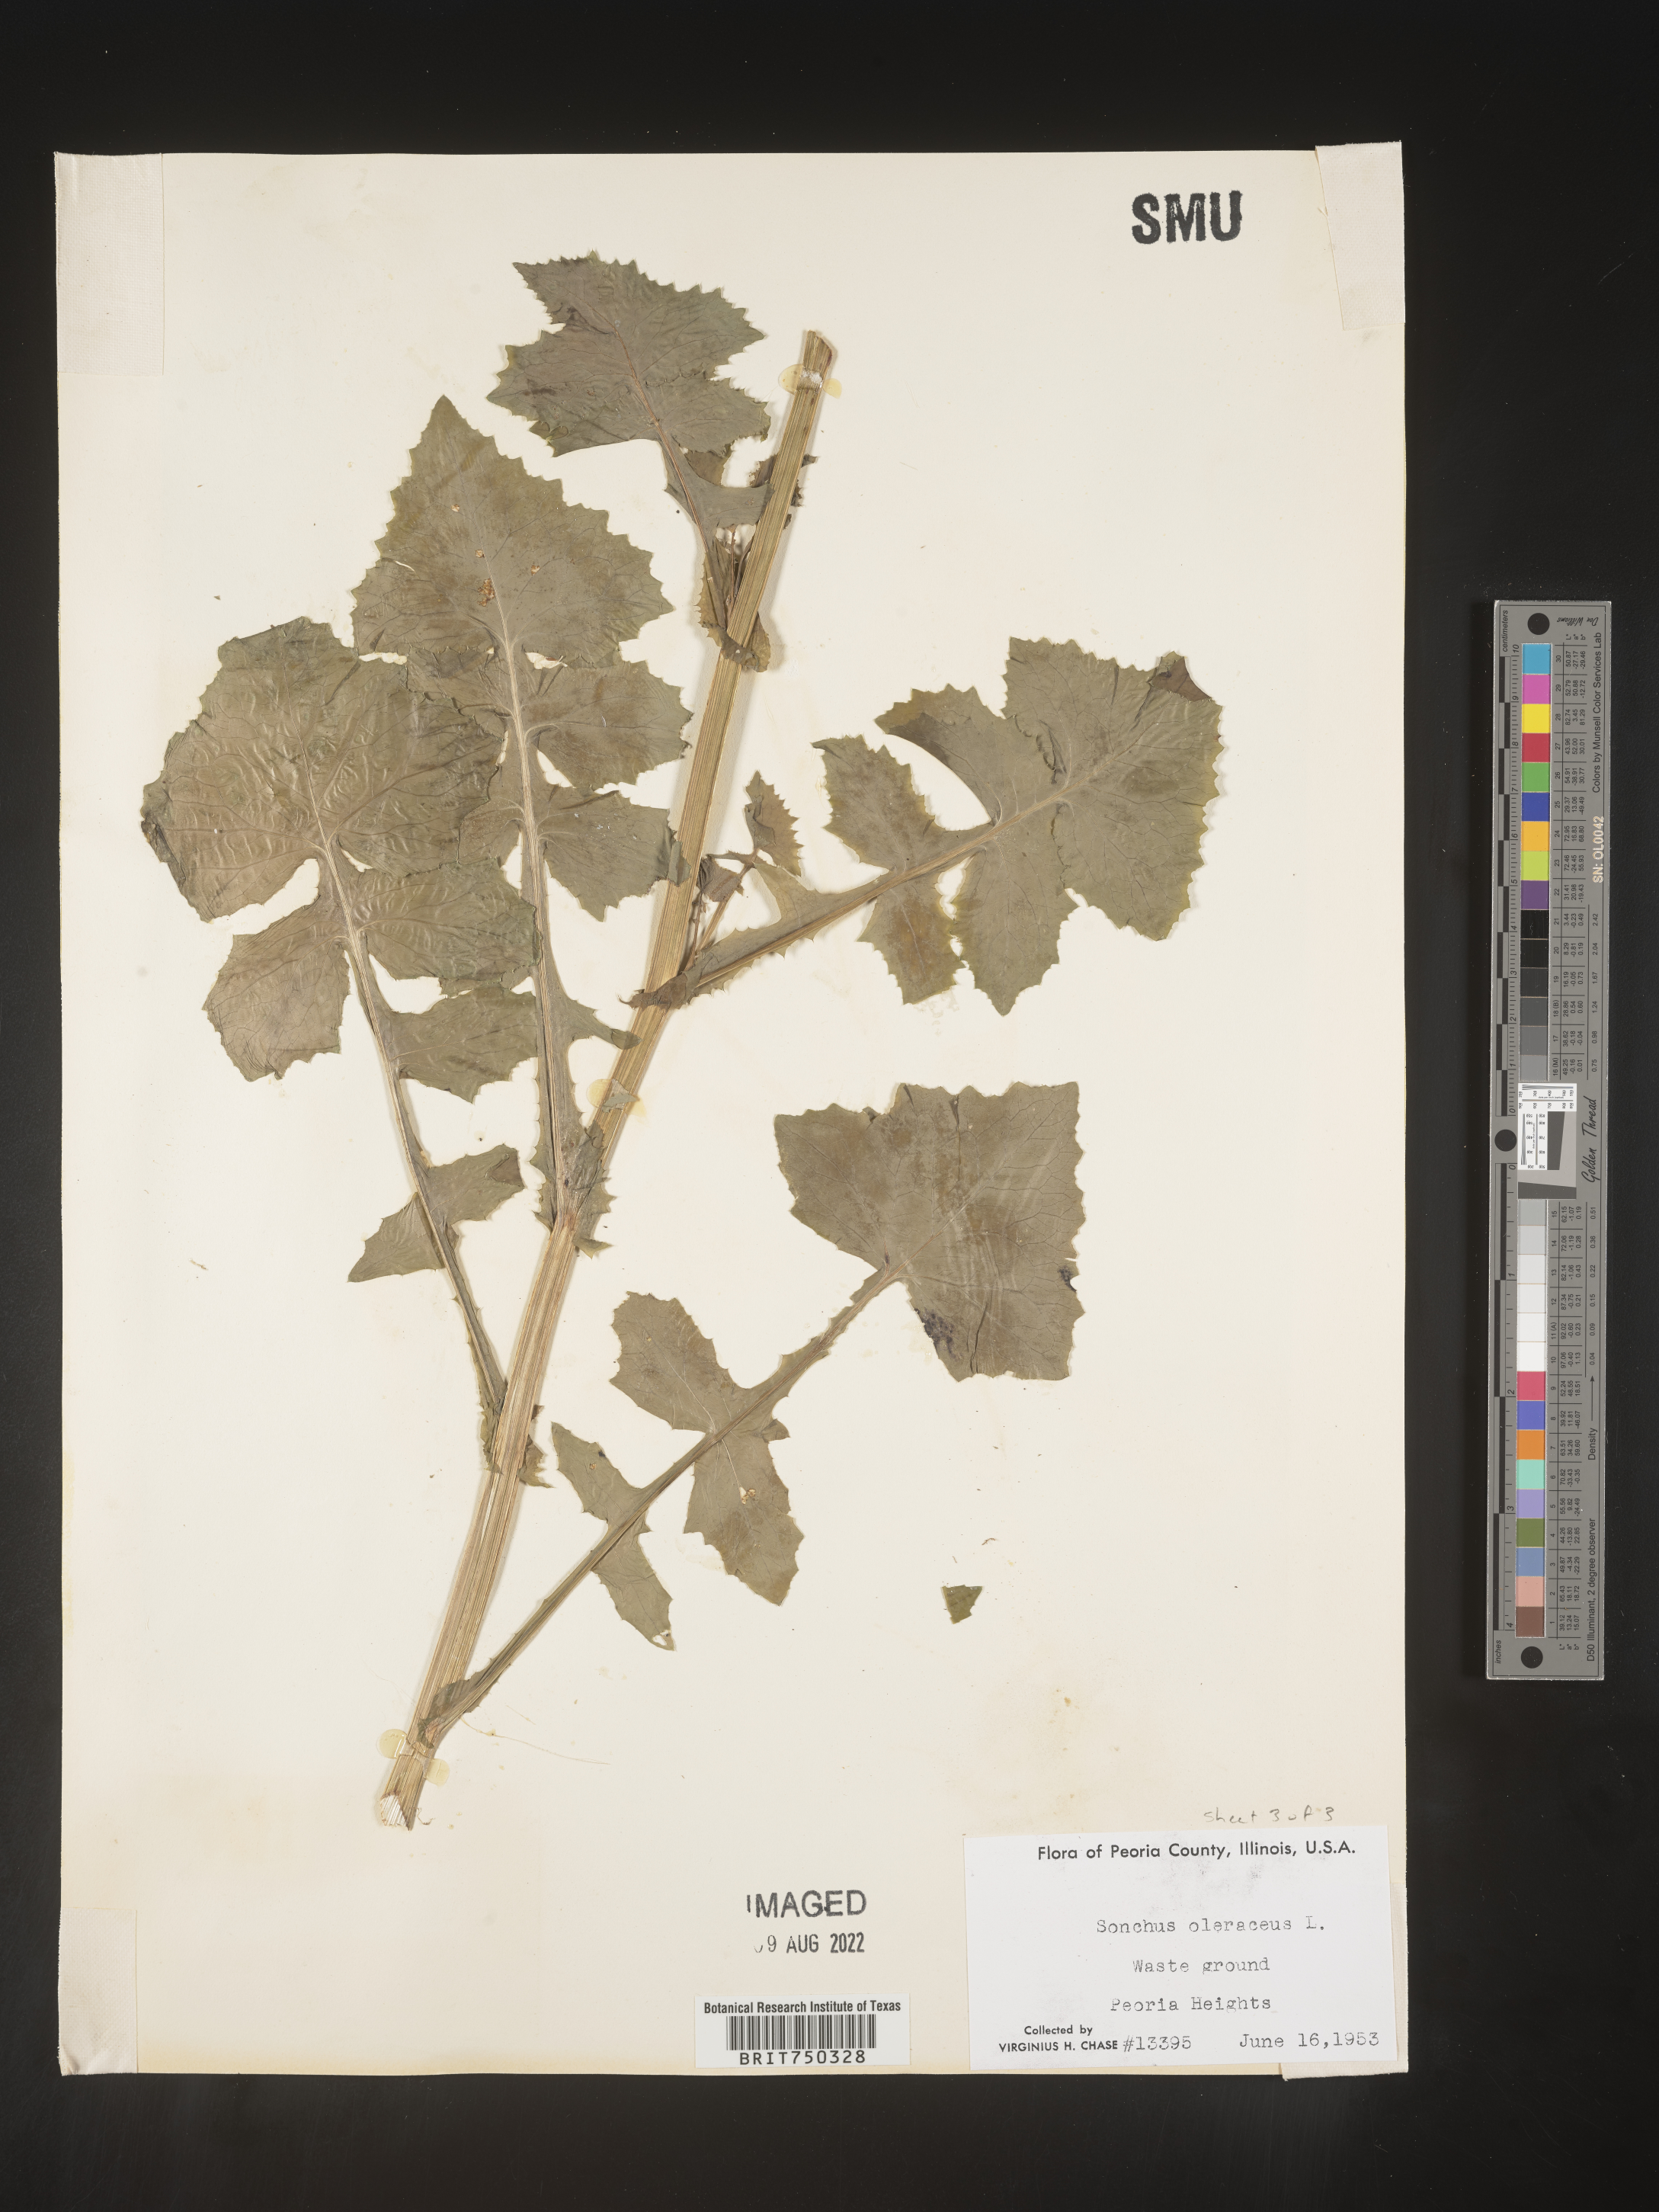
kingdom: Plantae
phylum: Tracheophyta
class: Magnoliopsida
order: Asterales
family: Asteraceae
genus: Sonchus
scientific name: Sonchus oleraceus
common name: Common sowthistle
